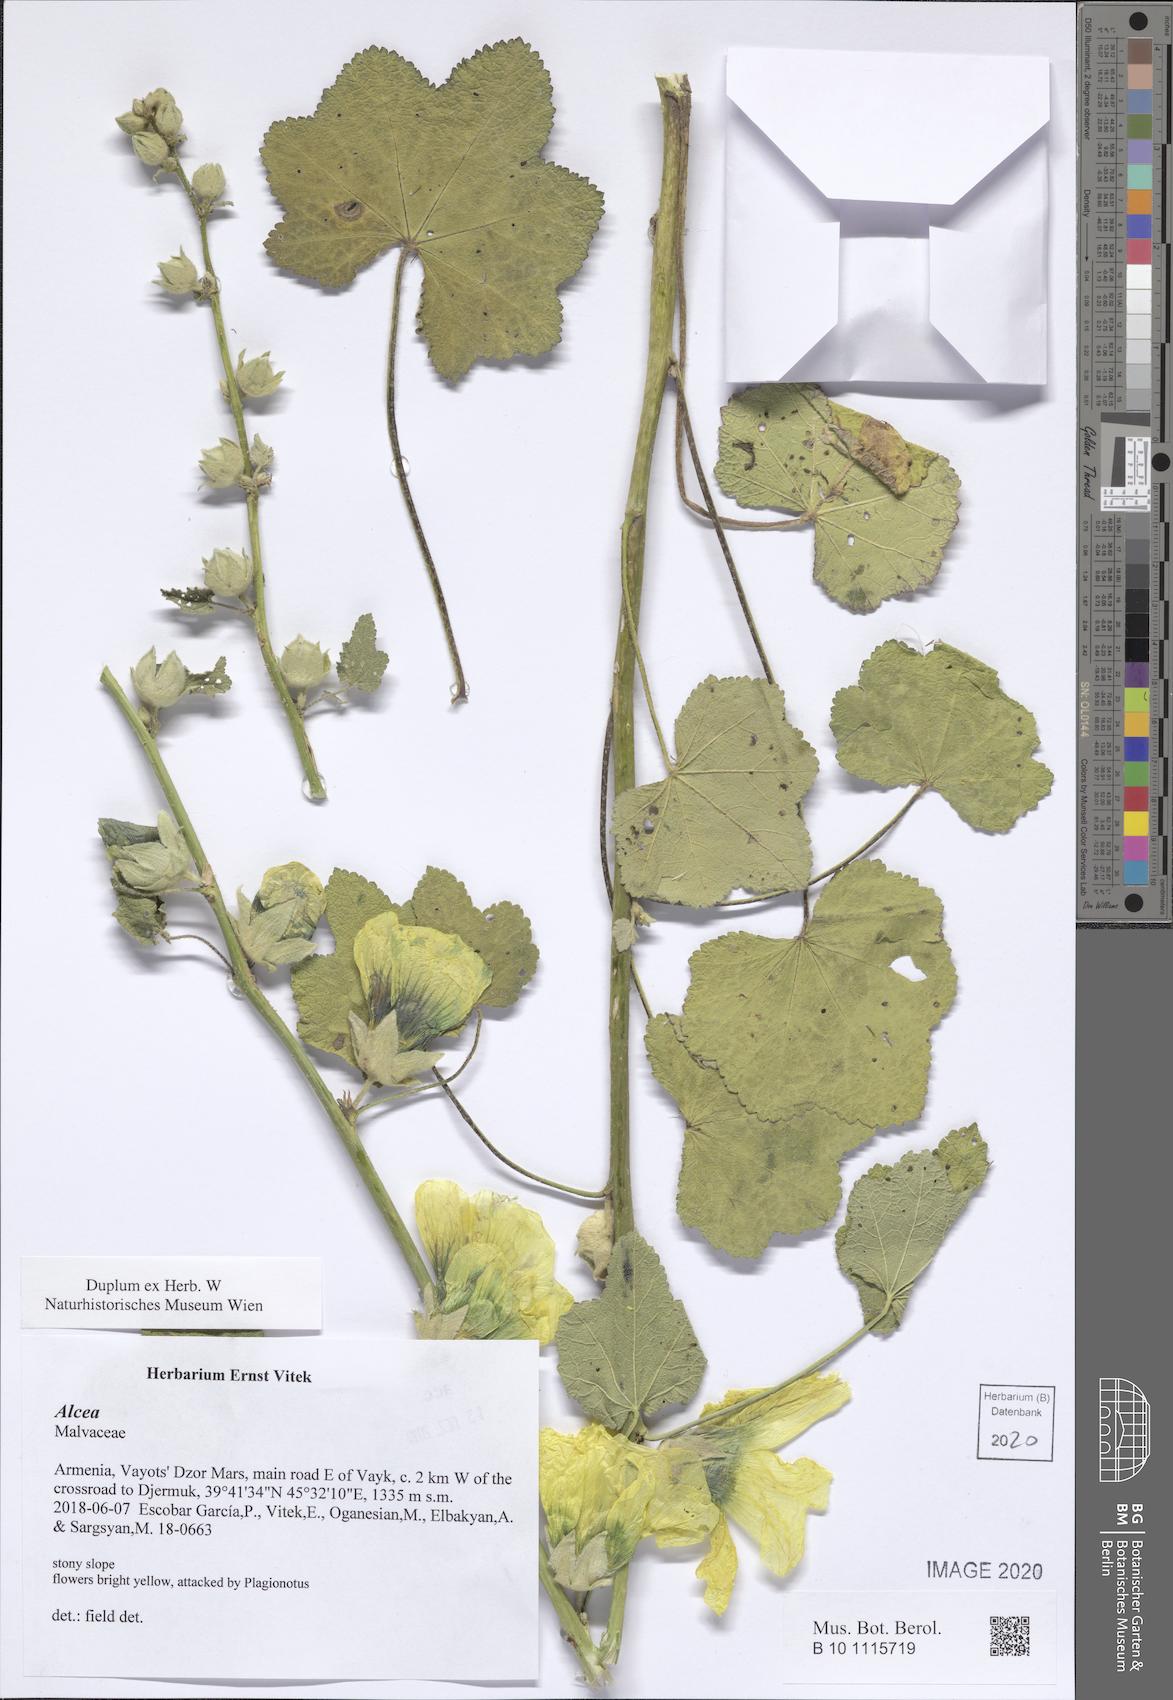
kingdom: Plantae
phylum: Tracheophyta
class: Magnoliopsida
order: Malvales
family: Malvaceae
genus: Alcea
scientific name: Alcea
